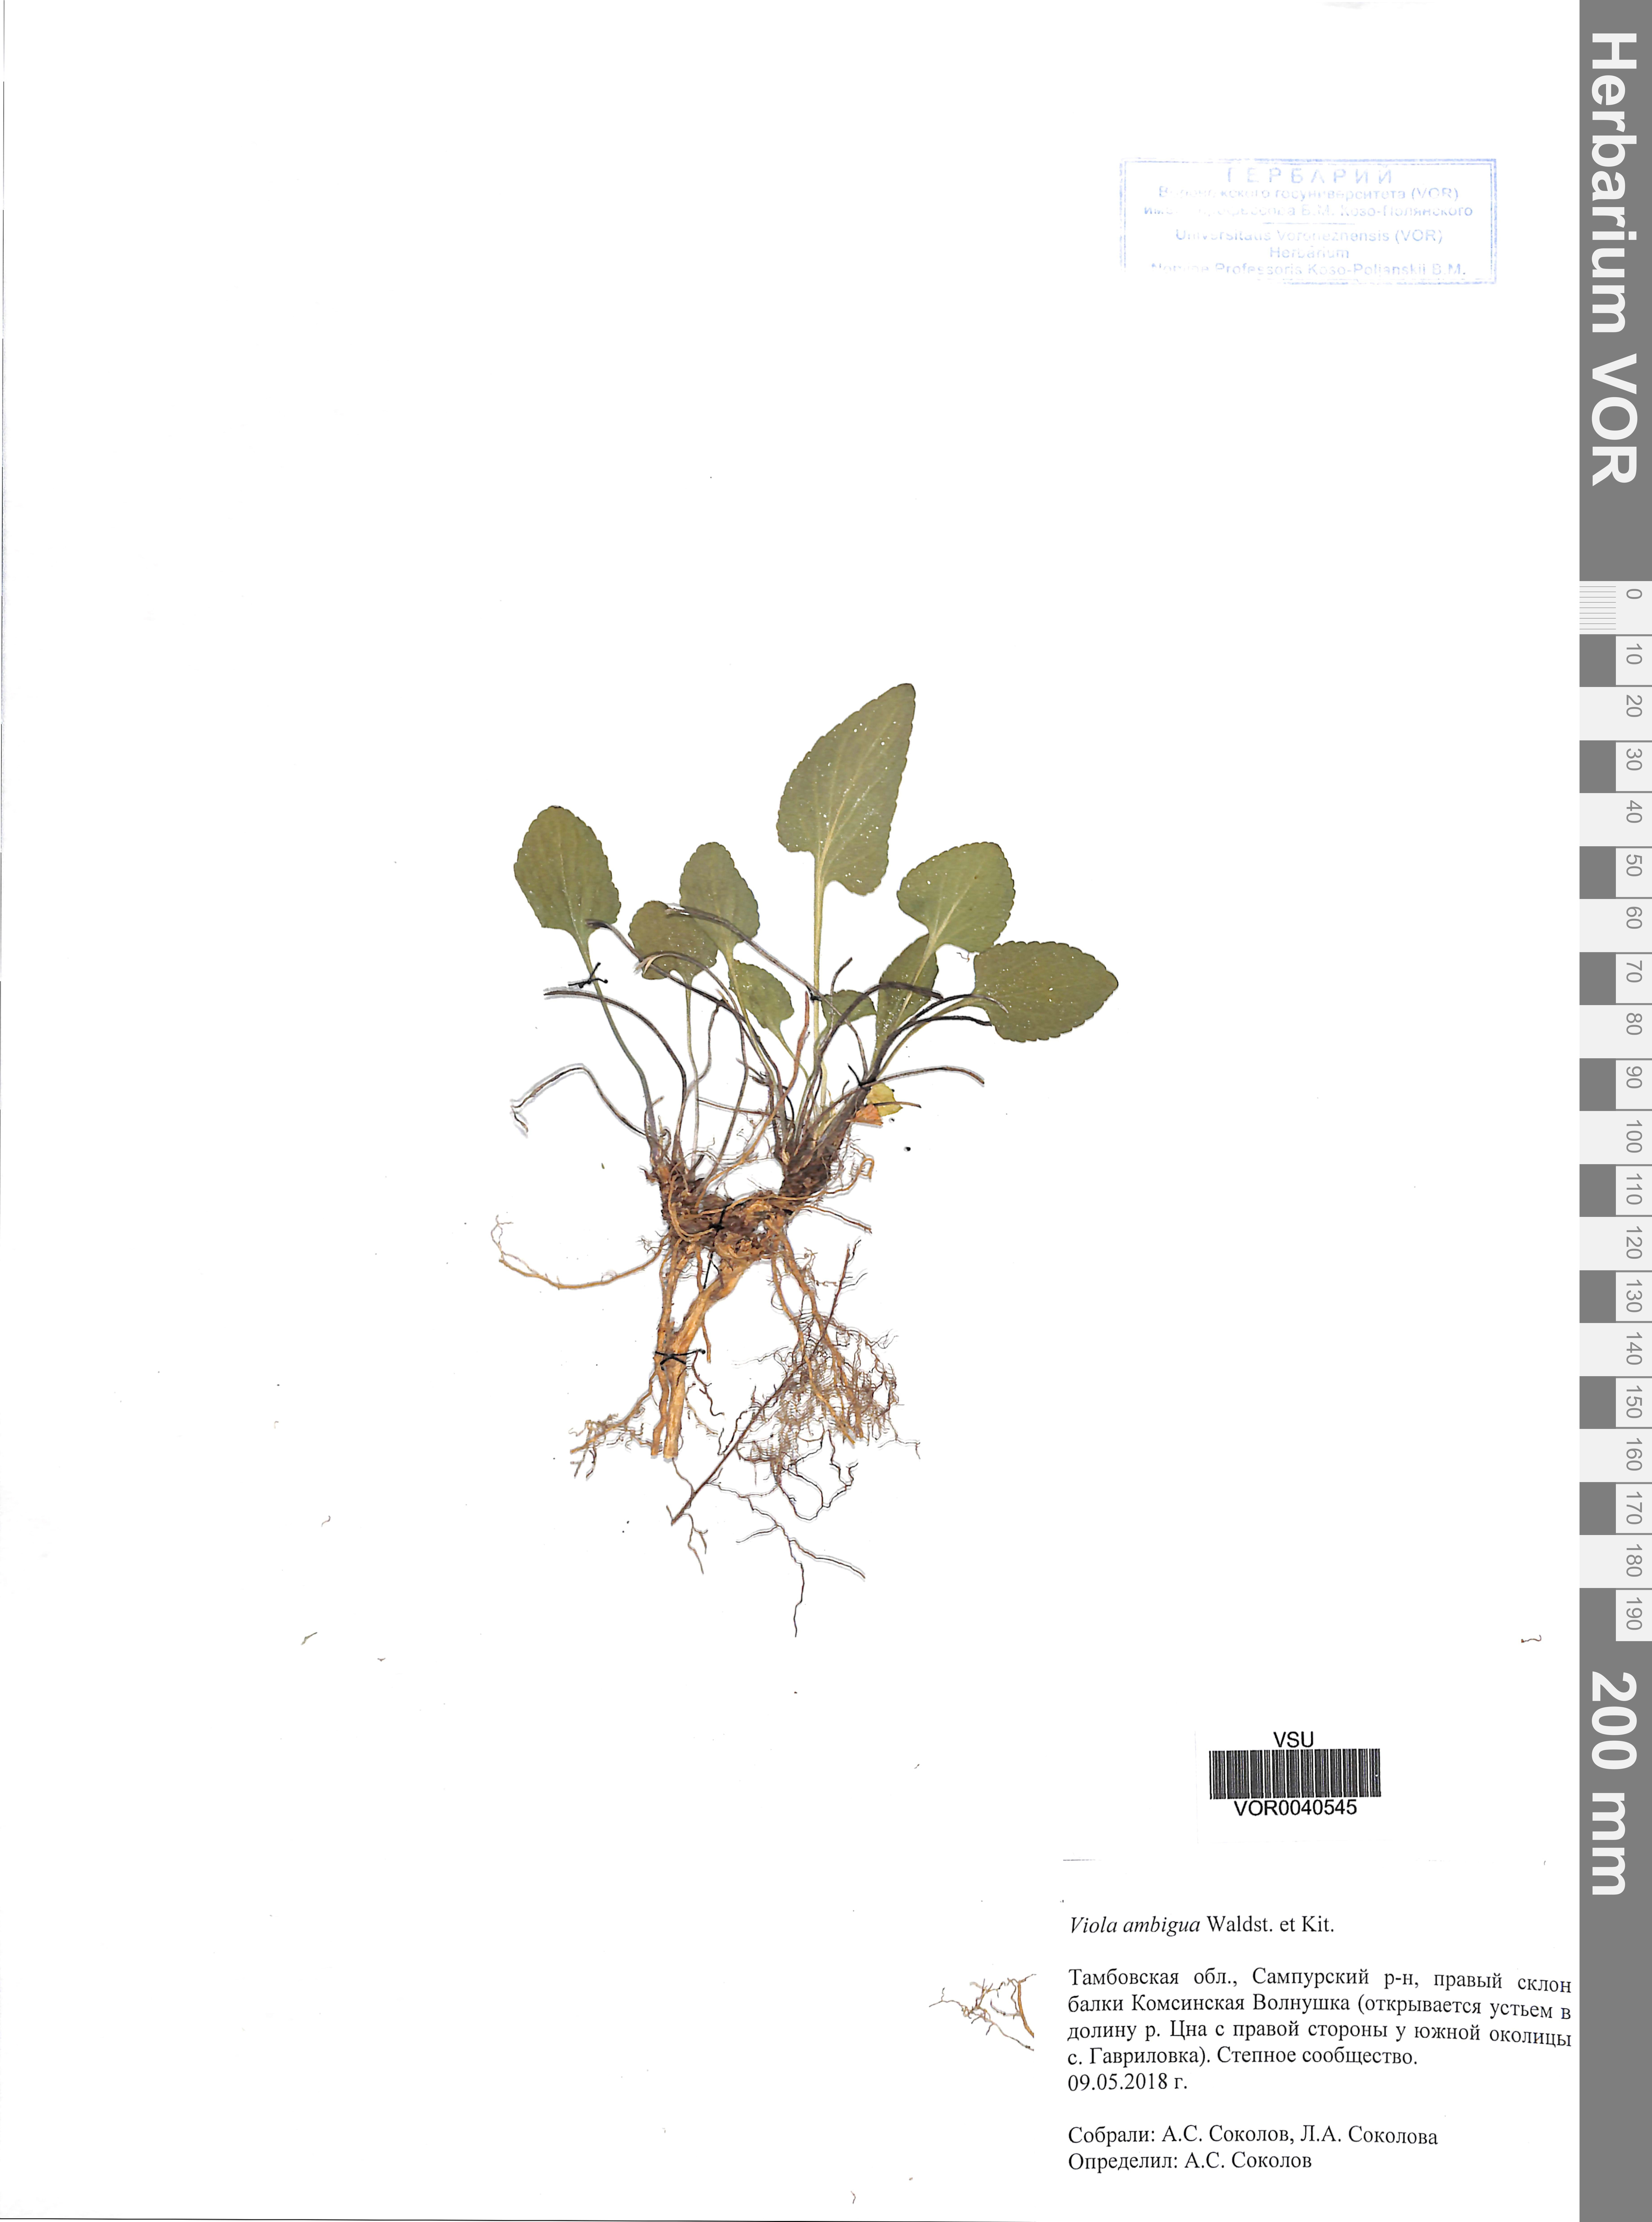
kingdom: Plantae
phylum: Tracheophyta
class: Magnoliopsida
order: Malpighiales
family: Violaceae
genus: Viola
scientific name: Viola ambigua
